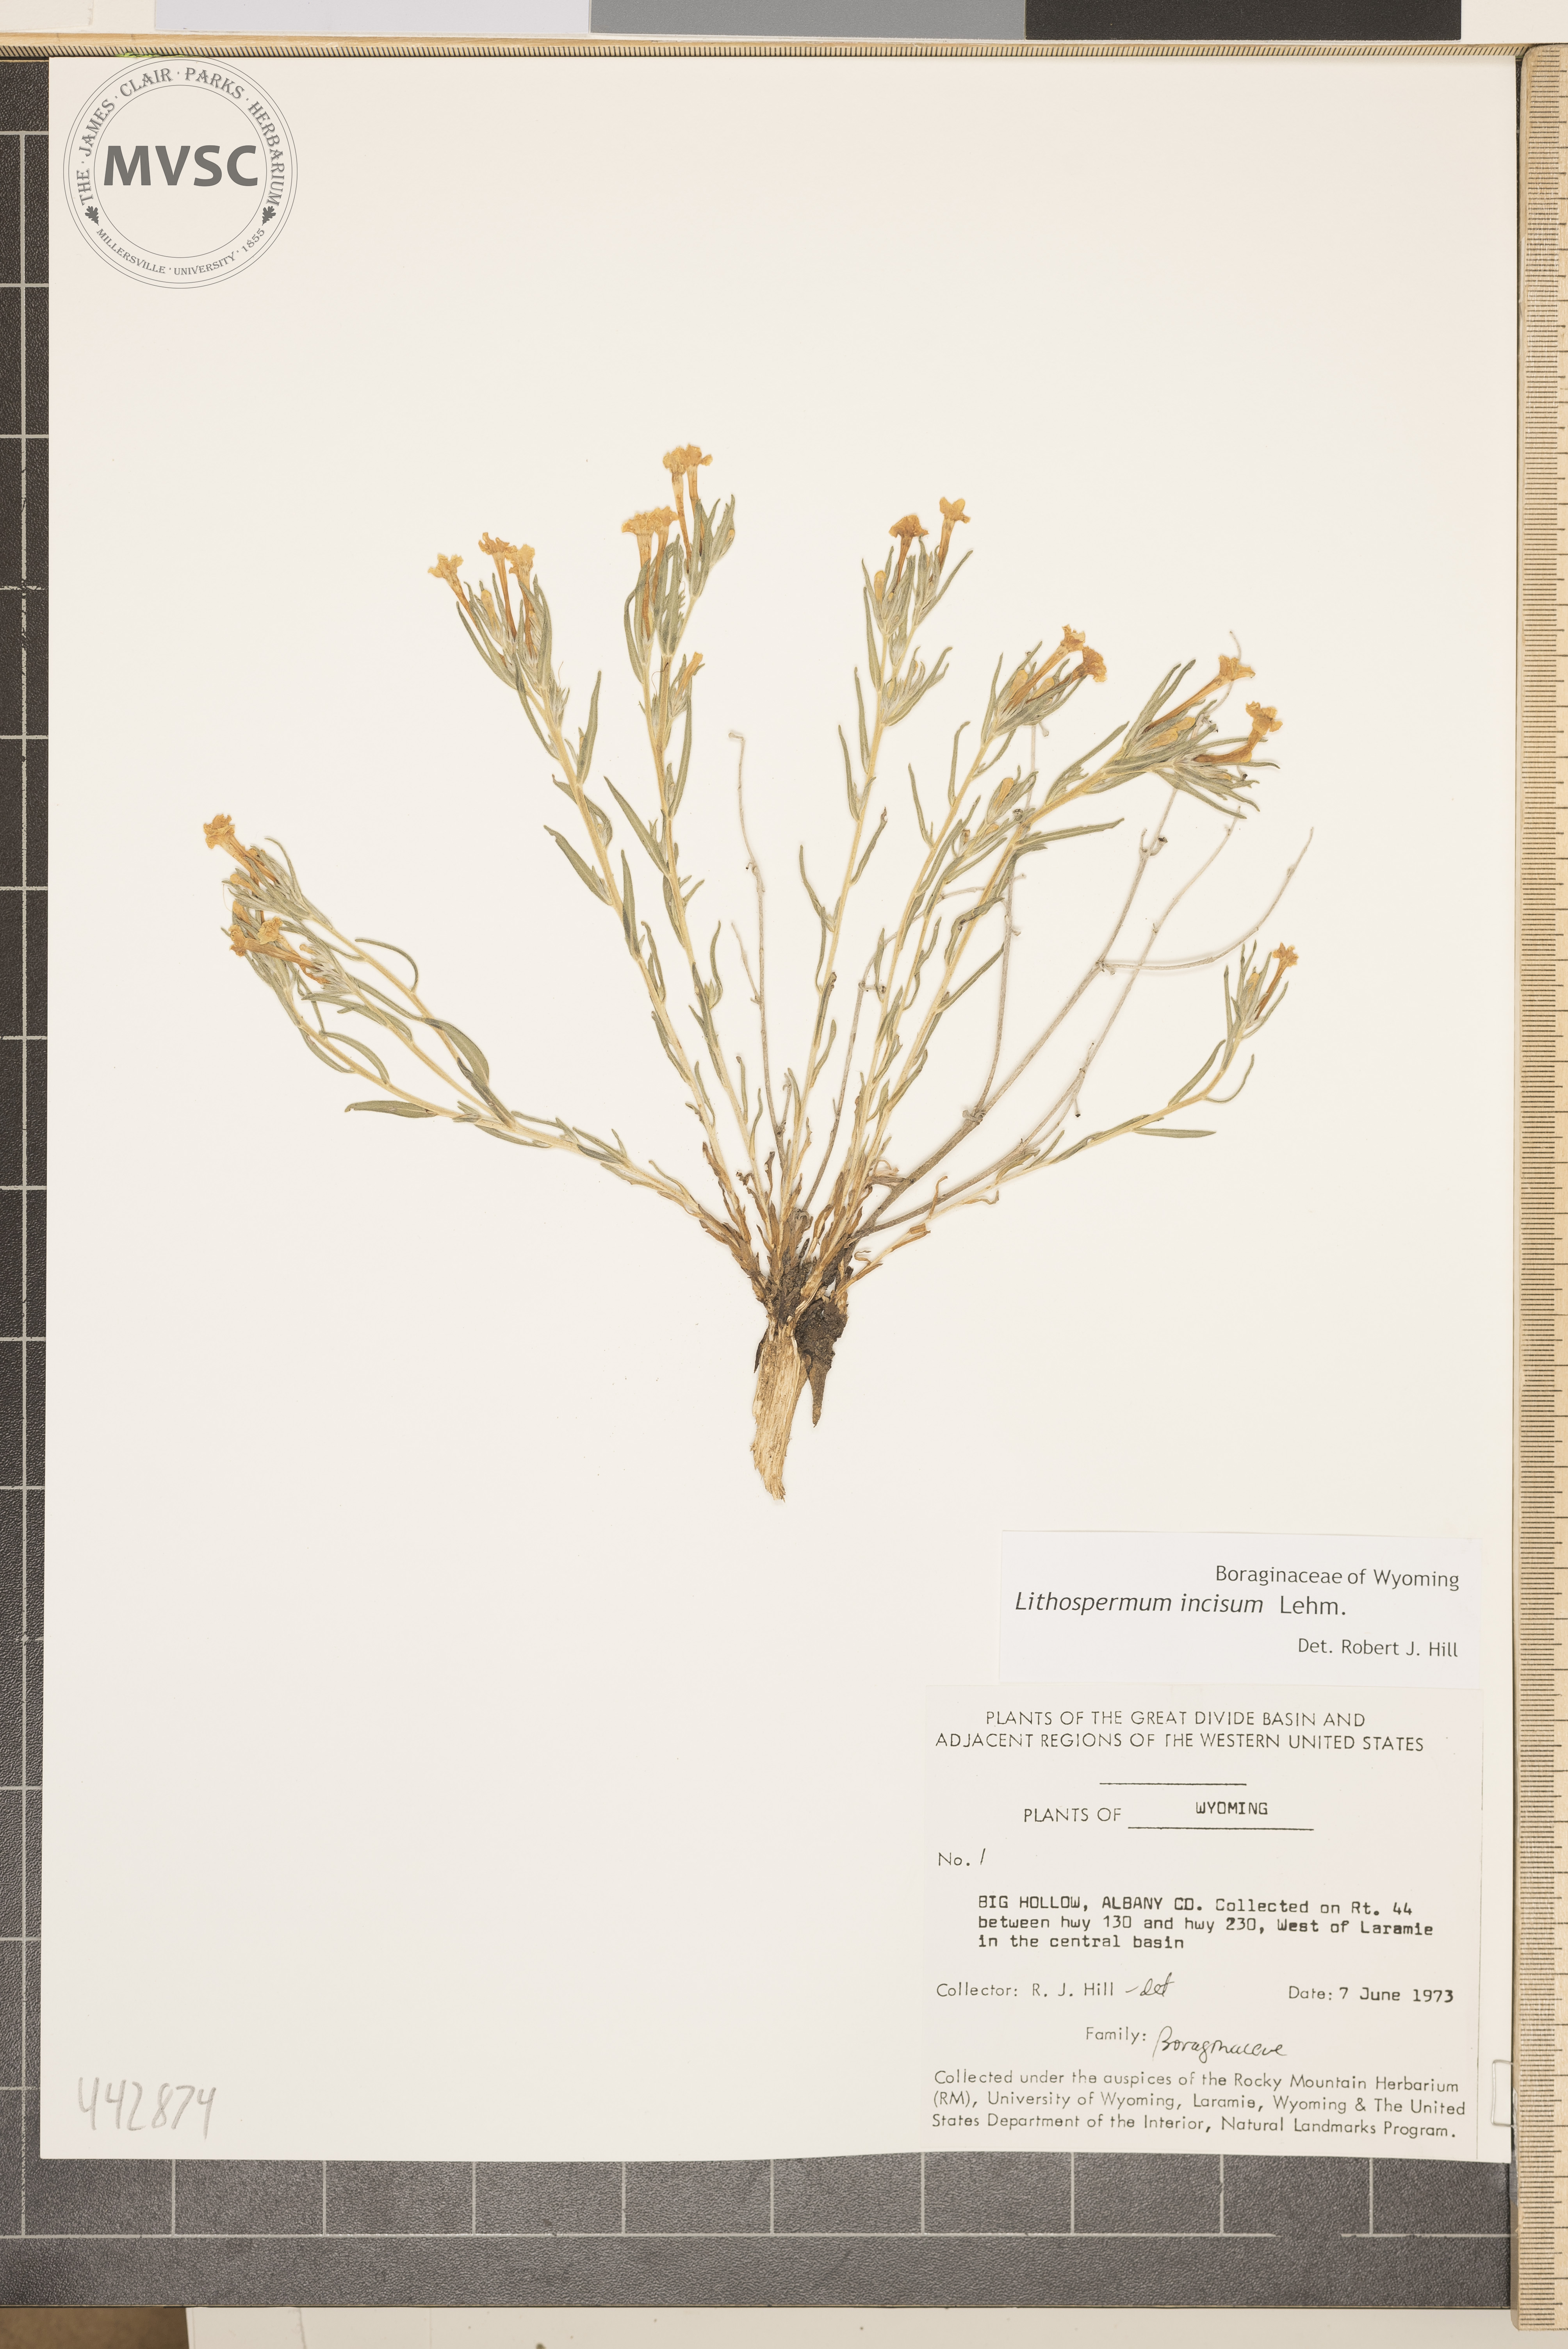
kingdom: Plantae
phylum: Tracheophyta
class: Magnoliopsida
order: Boraginales
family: Boraginaceae
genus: Lithospermum
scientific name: Lithospermum incisum
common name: Fringed gromwell
